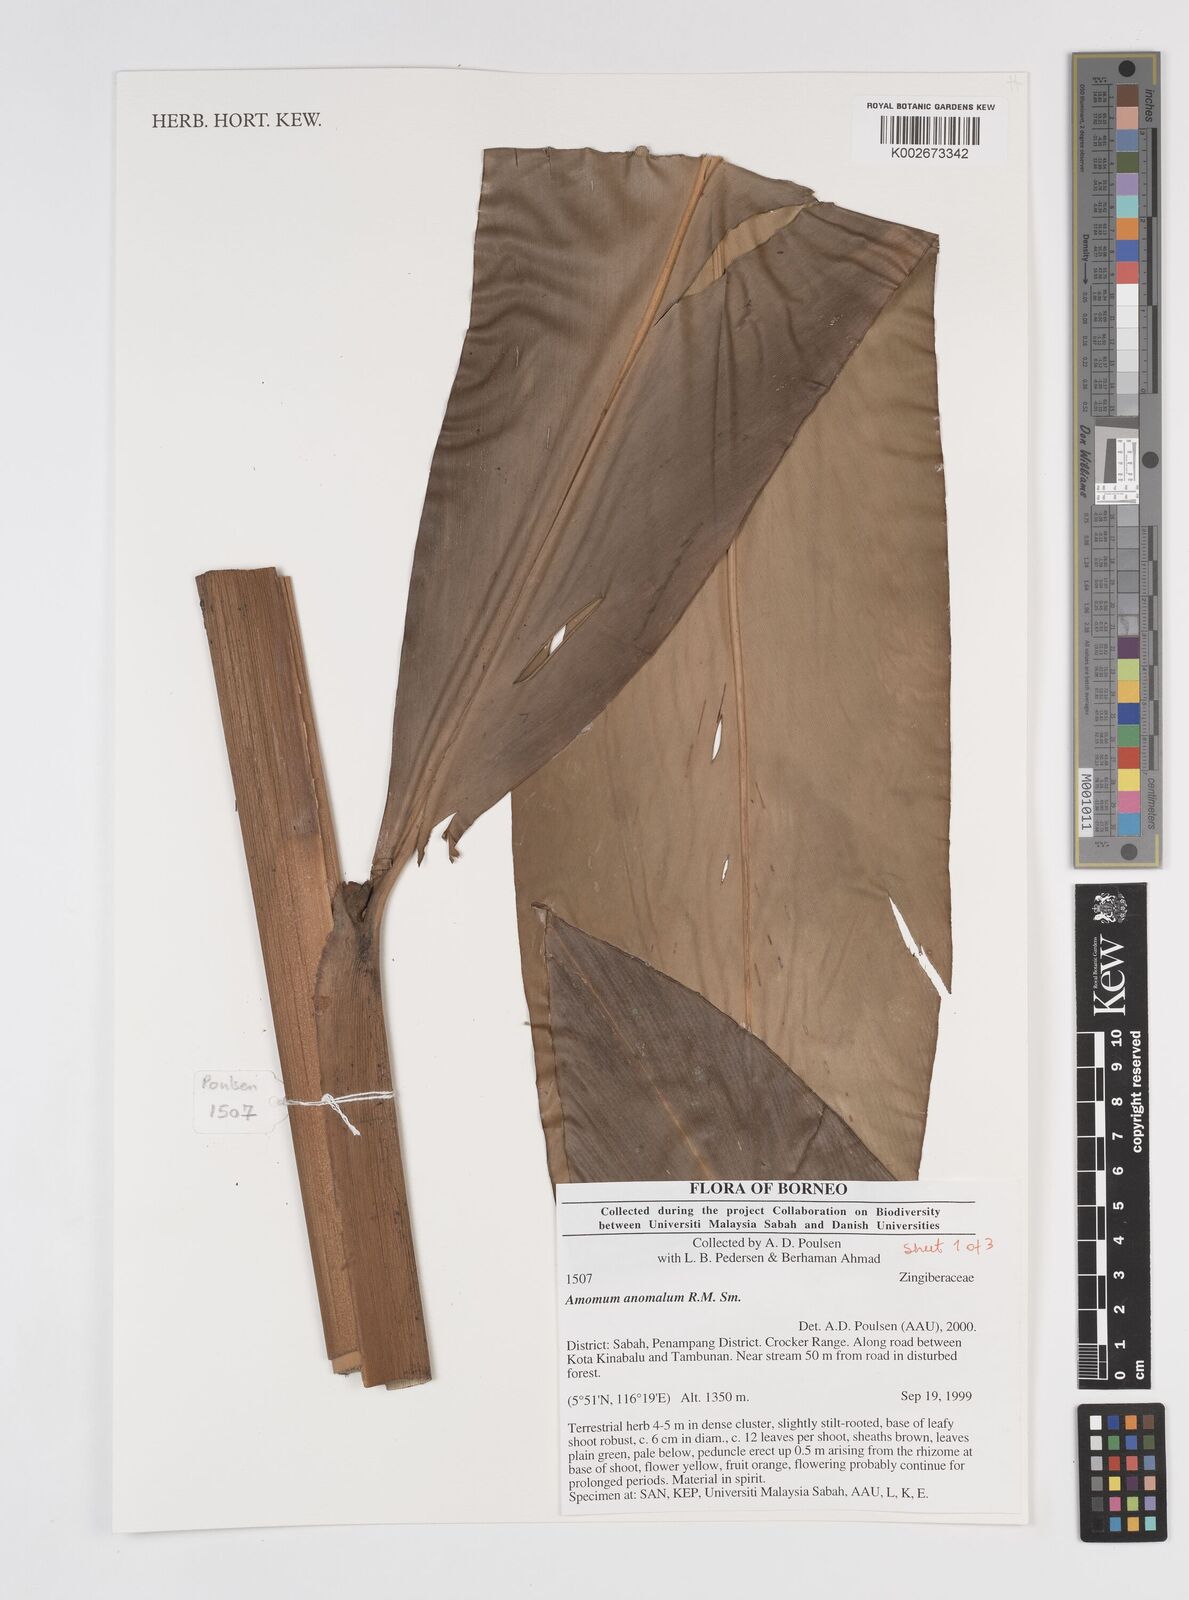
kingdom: Plantae
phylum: Tracheophyta
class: Liliopsida
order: Zingiberales
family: Zingiberaceae
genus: Sulettaria
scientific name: Sulettaria anomala
